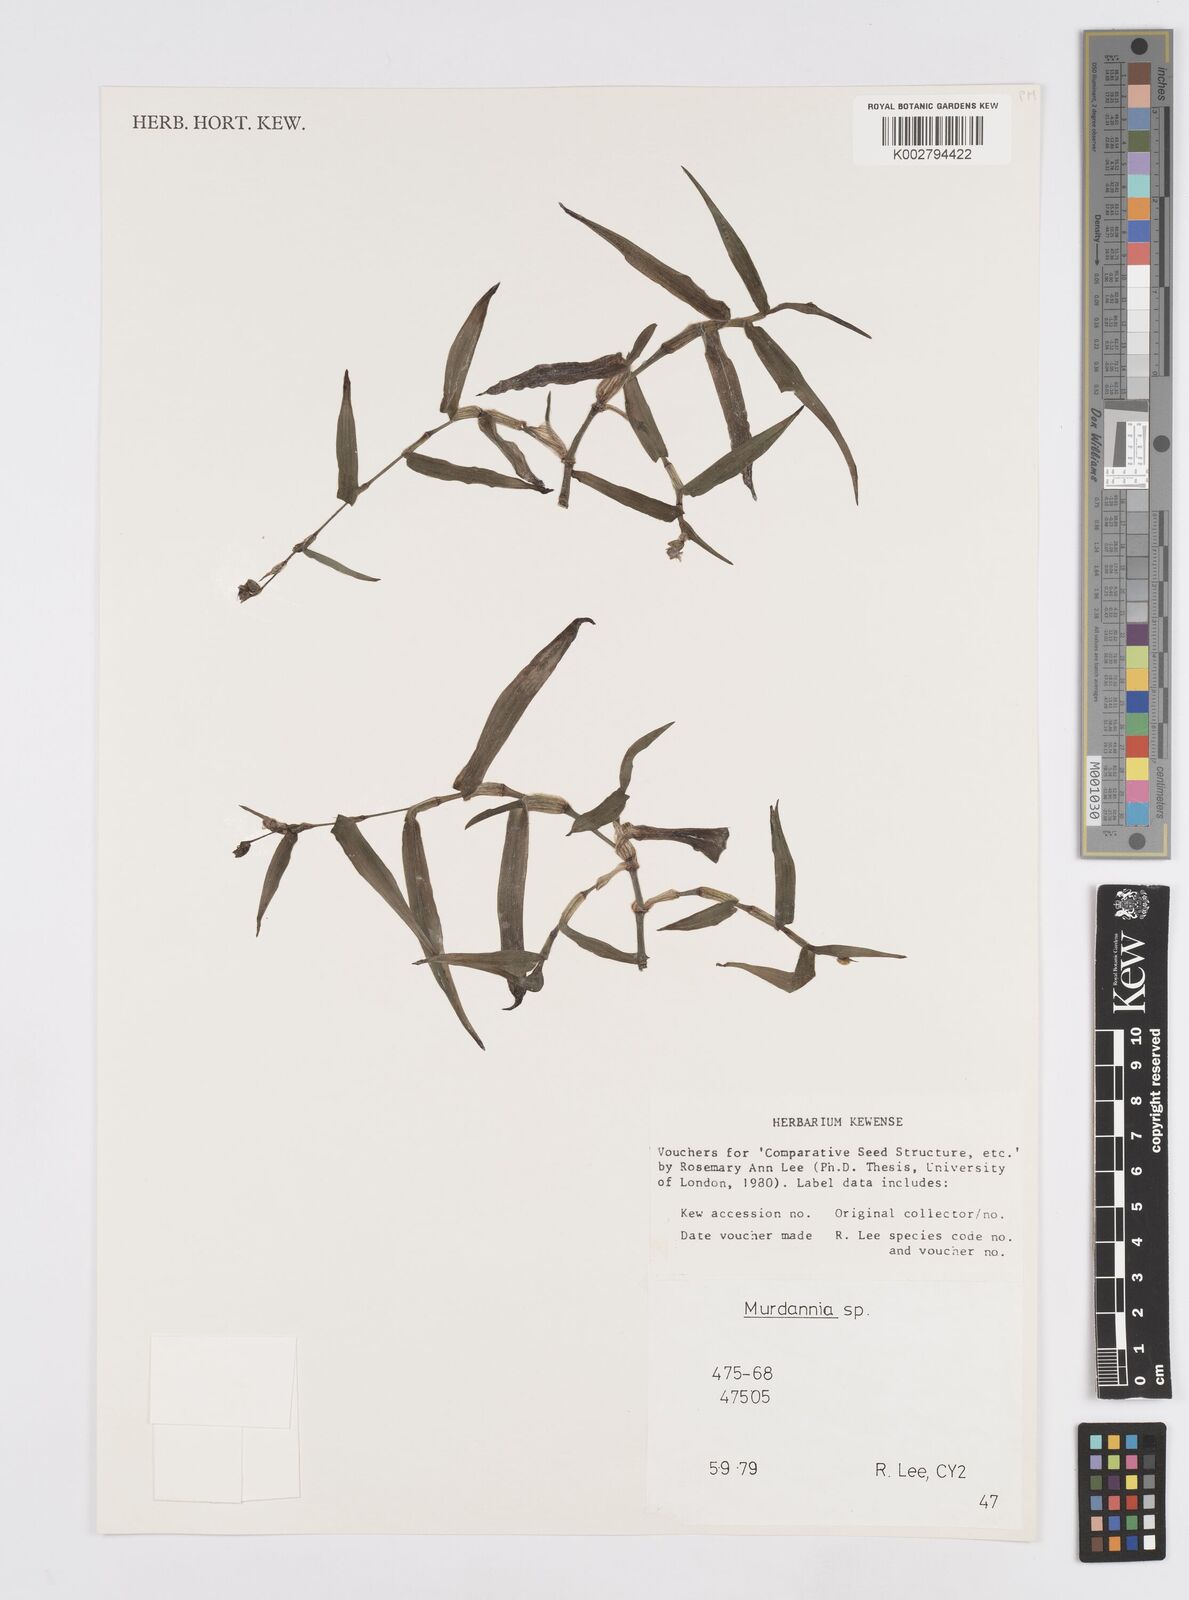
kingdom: Plantae
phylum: Tracheophyta
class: Liliopsida
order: Commelinales
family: Commelinaceae
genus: Murdannia
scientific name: Murdannia
